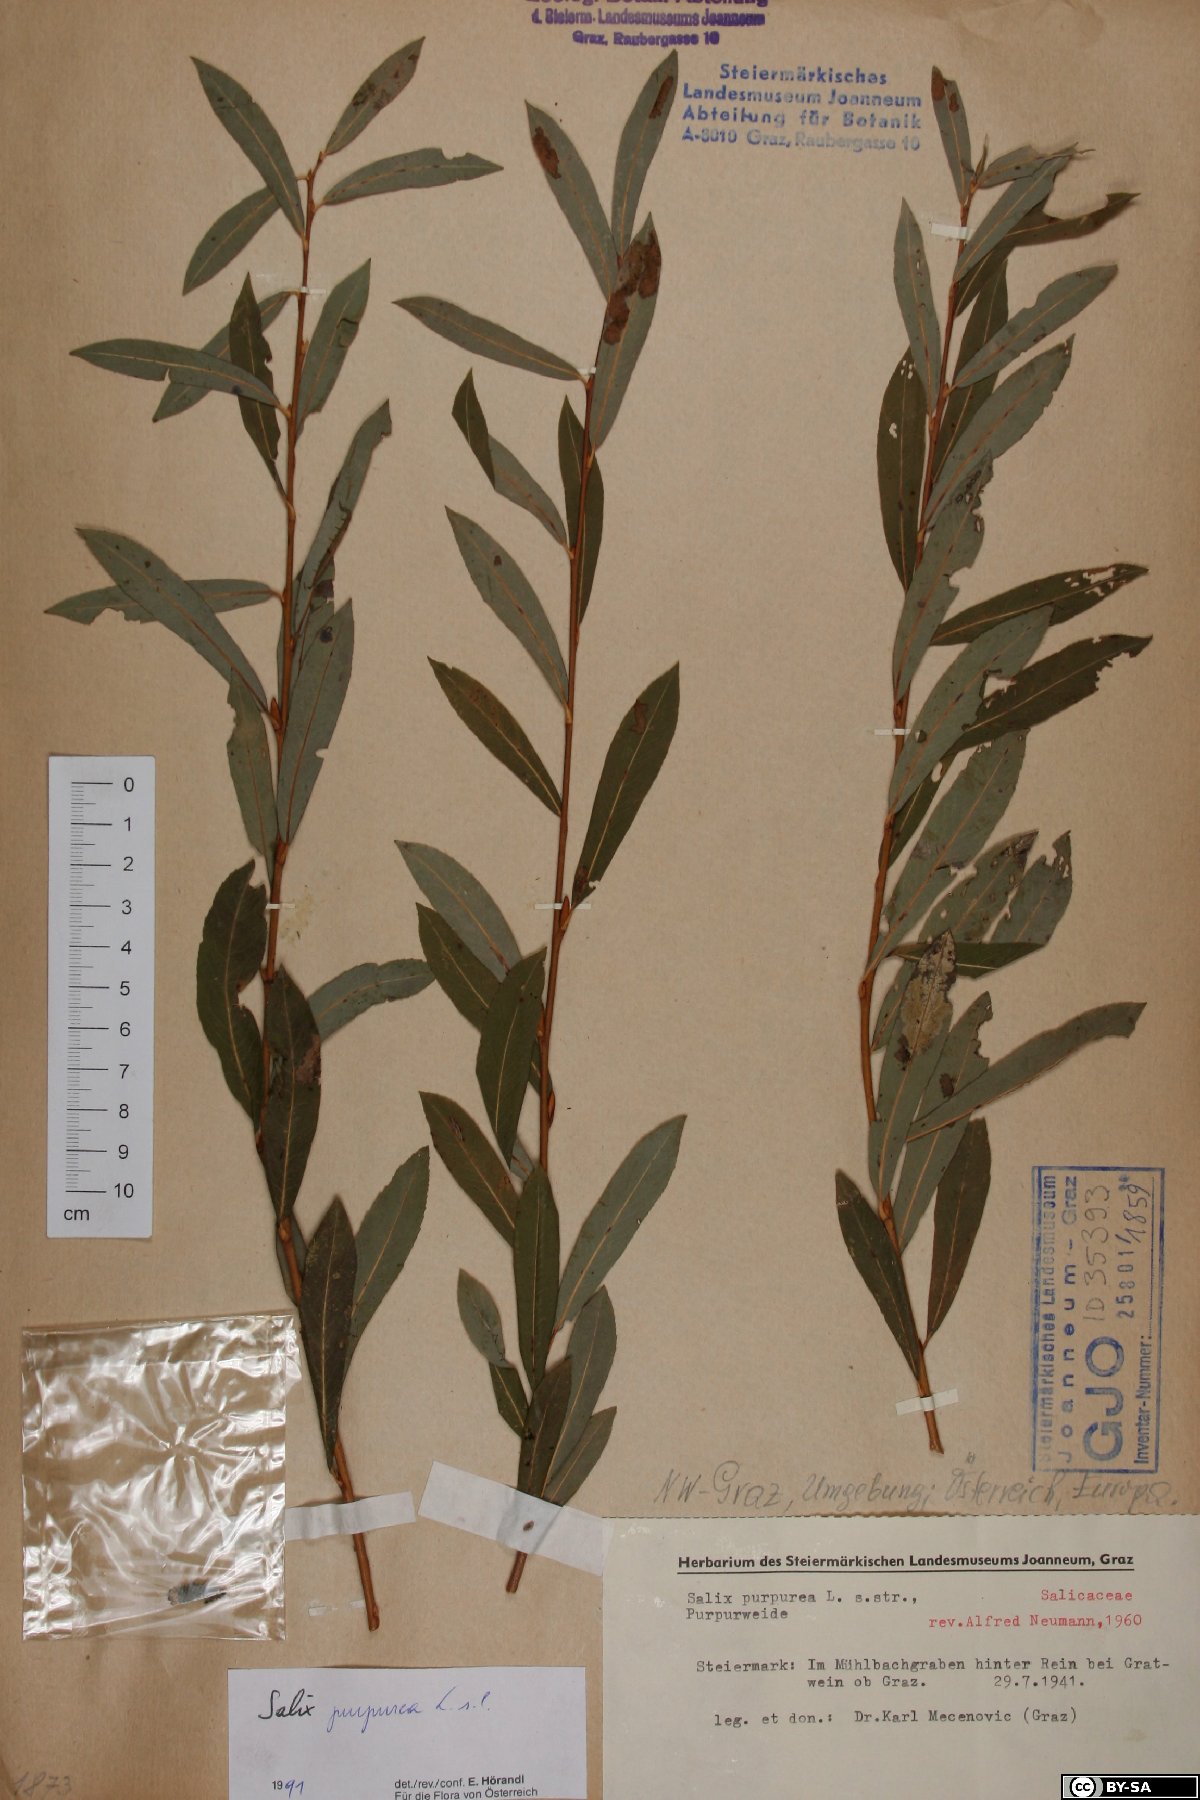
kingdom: Plantae
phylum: Tracheophyta
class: Magnoliopsida
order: Malpighiales
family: Salicaceae
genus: Salix
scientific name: Salix purpurea
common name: Purple willow
